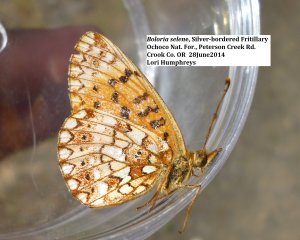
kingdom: Animalia
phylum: Arthropoda
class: Insecta
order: Lepidoptera
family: Nymphalidae
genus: Boloria
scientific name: Boloria selene
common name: Silver-bordered Fritillary
